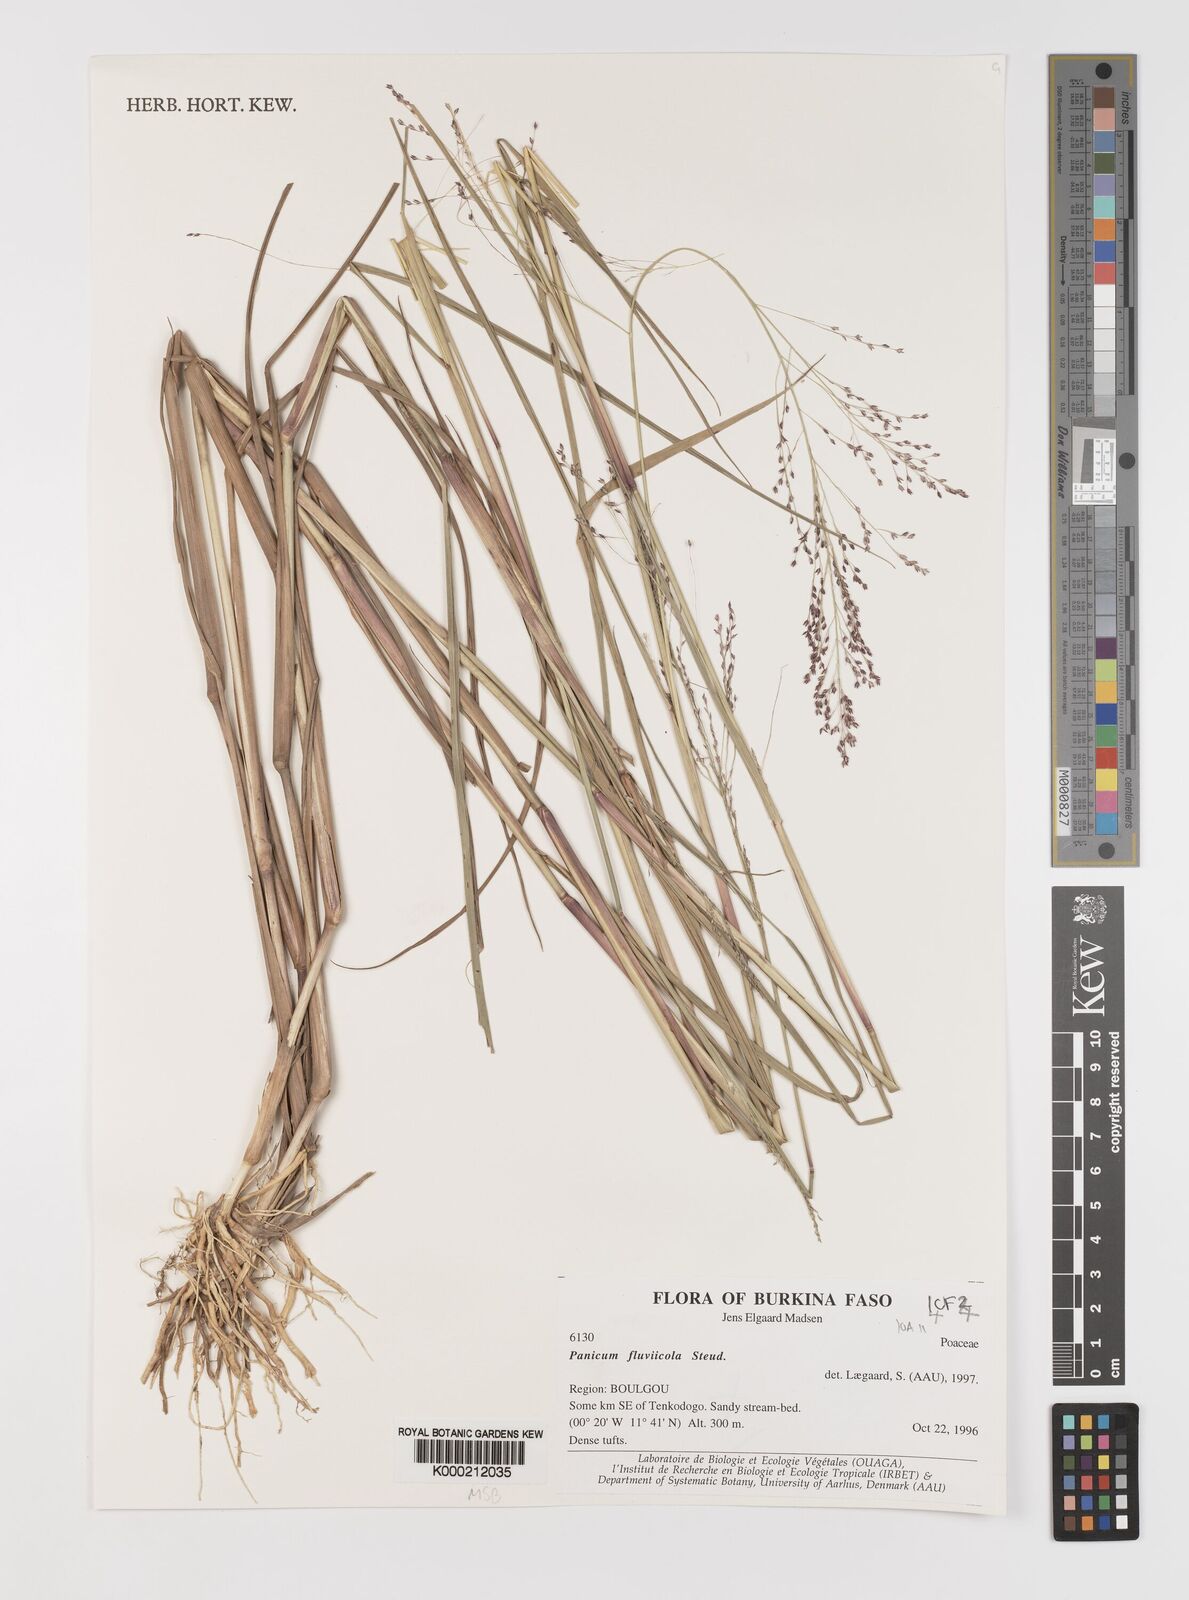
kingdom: Plantae
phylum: Tracheophyta
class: Liliopsida
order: Poales
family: Poaceae
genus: Panicum
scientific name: Panicum fluviicola
